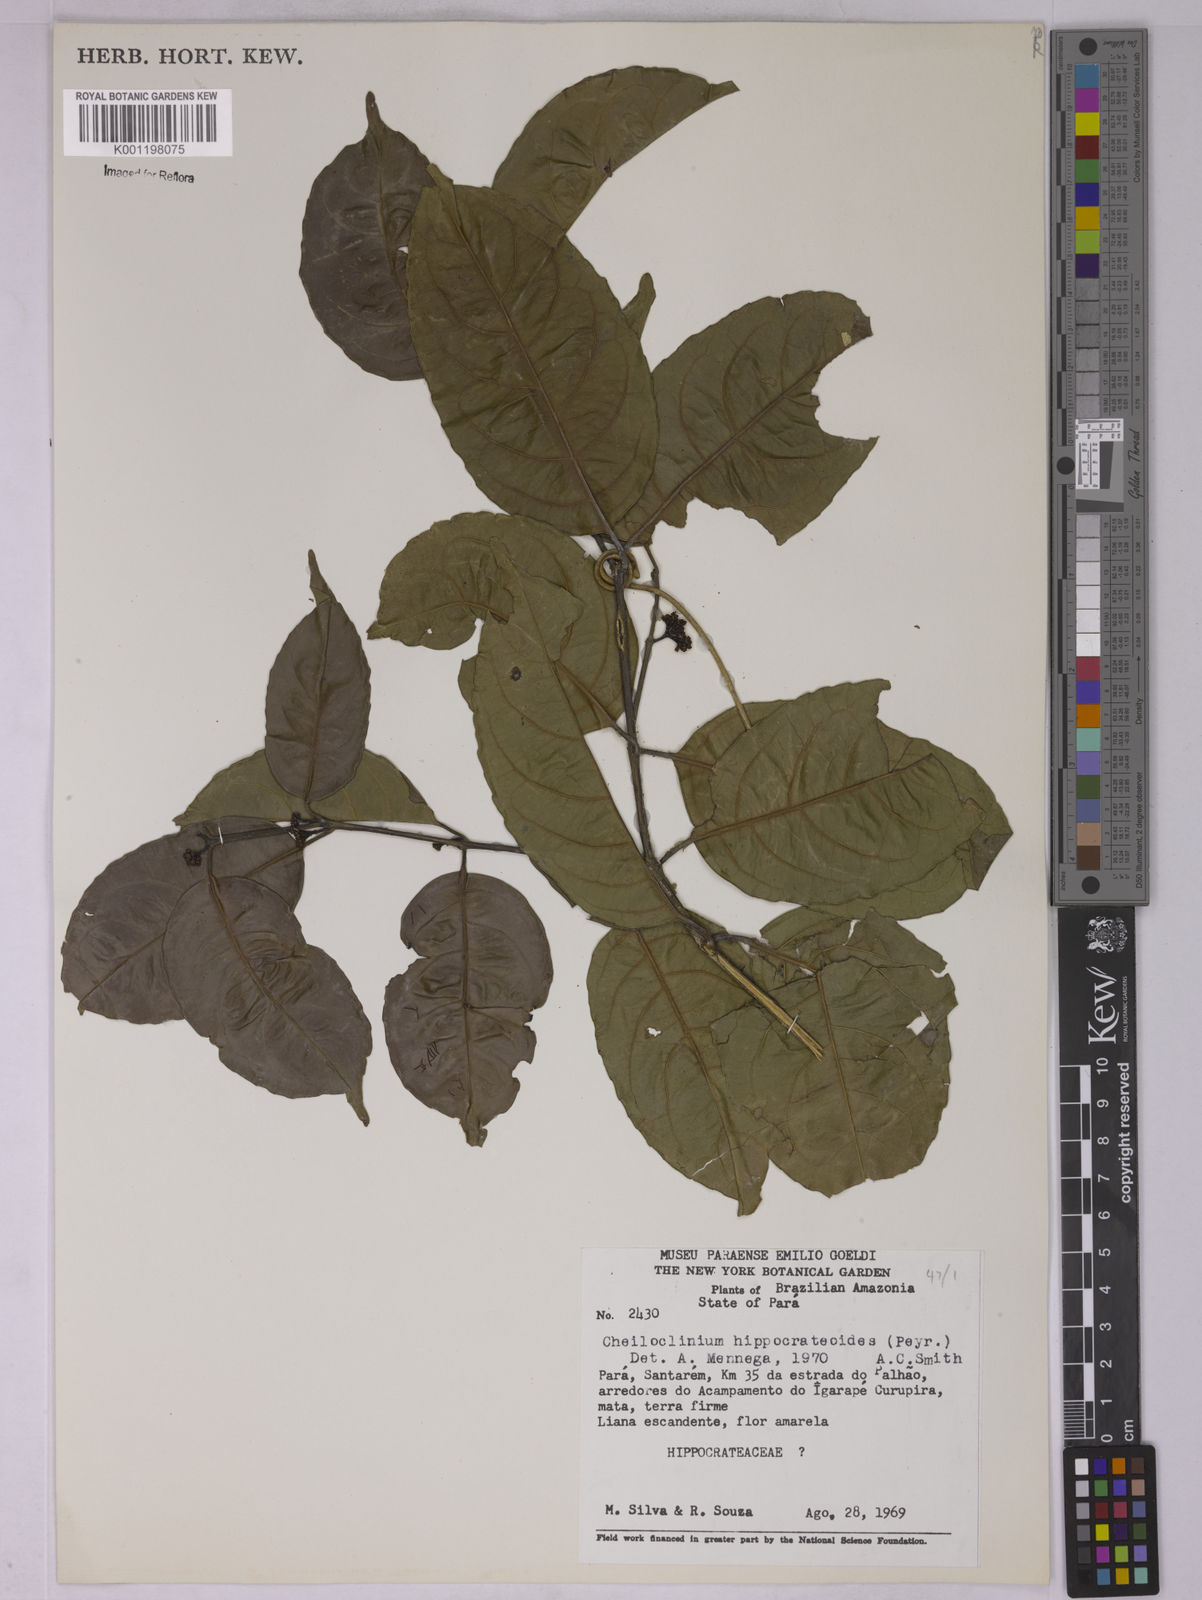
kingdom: Plantae
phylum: Tracheophyta
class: Magnoliopsida
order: Celastrales
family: Celastraceae
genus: Cheiloclinium
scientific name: Cheiloclinium hippocrateoides
